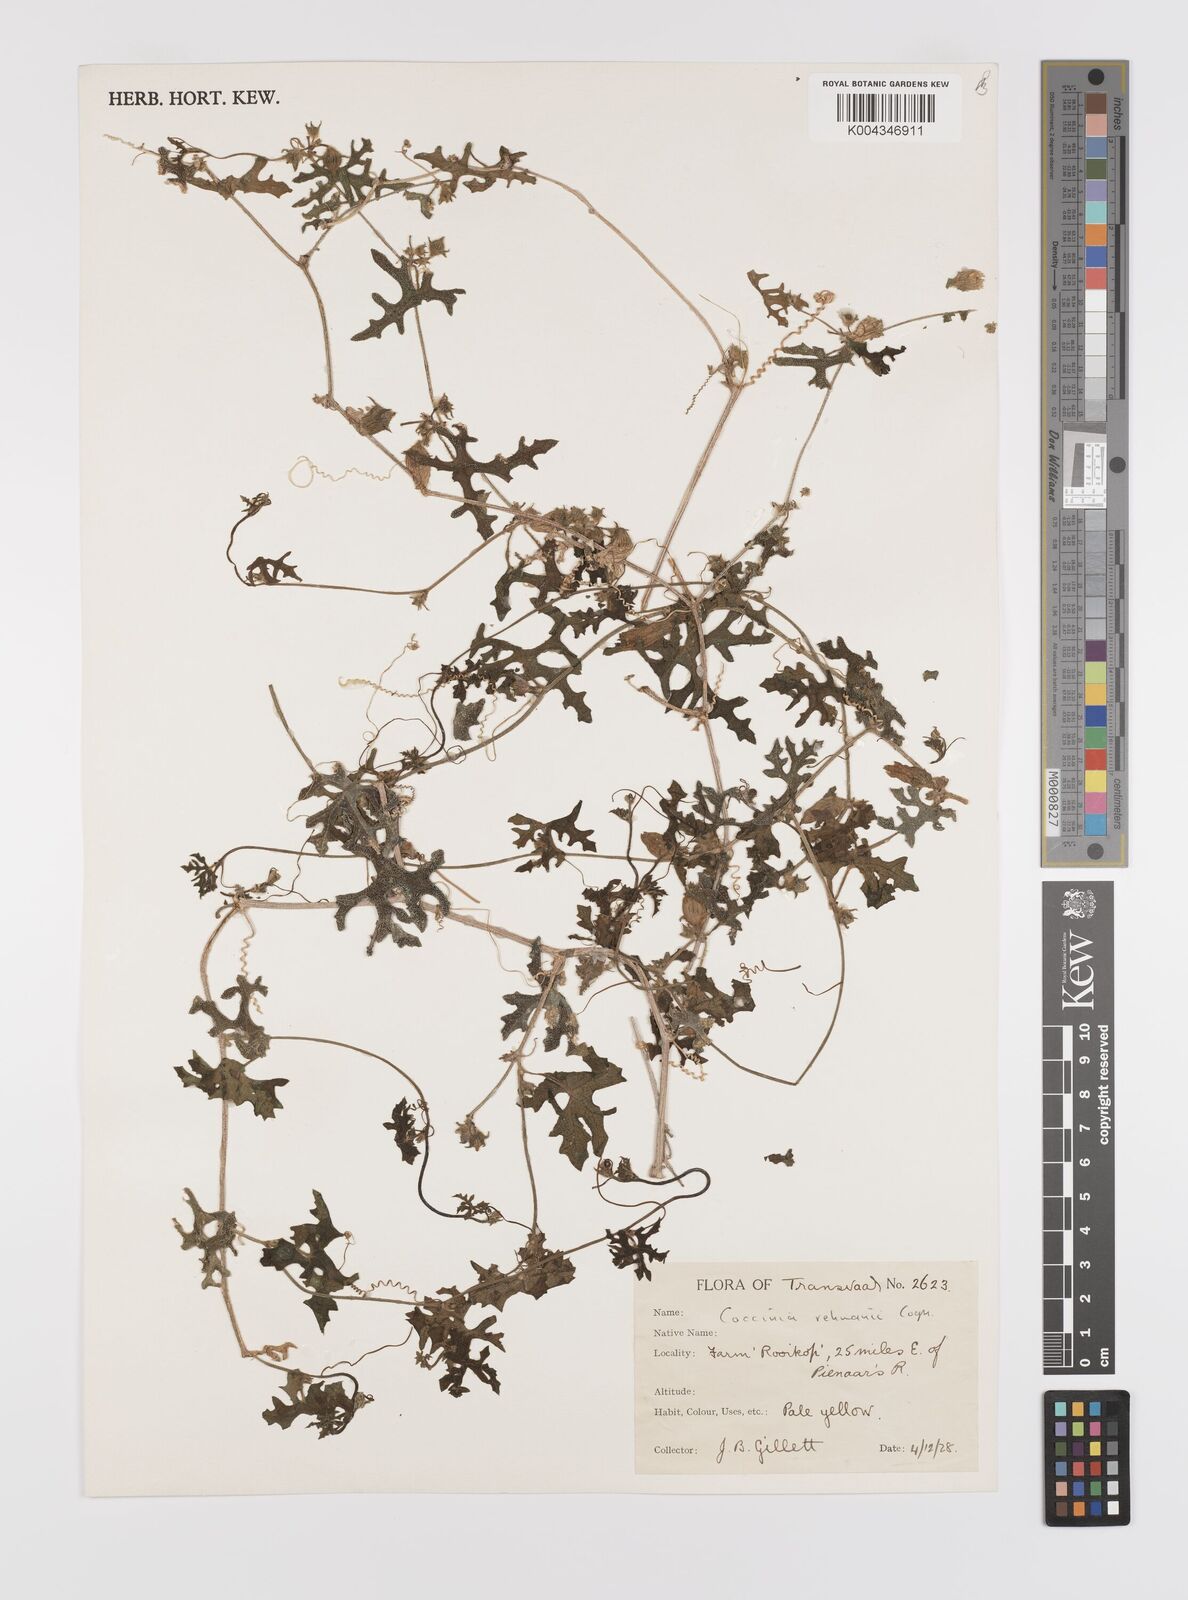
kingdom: Plantae
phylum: Tracheophyta
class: Magnoliopsida
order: Cucurbitales
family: Cucurbitaceae
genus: Coccinia
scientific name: Coccinia rehmannii
